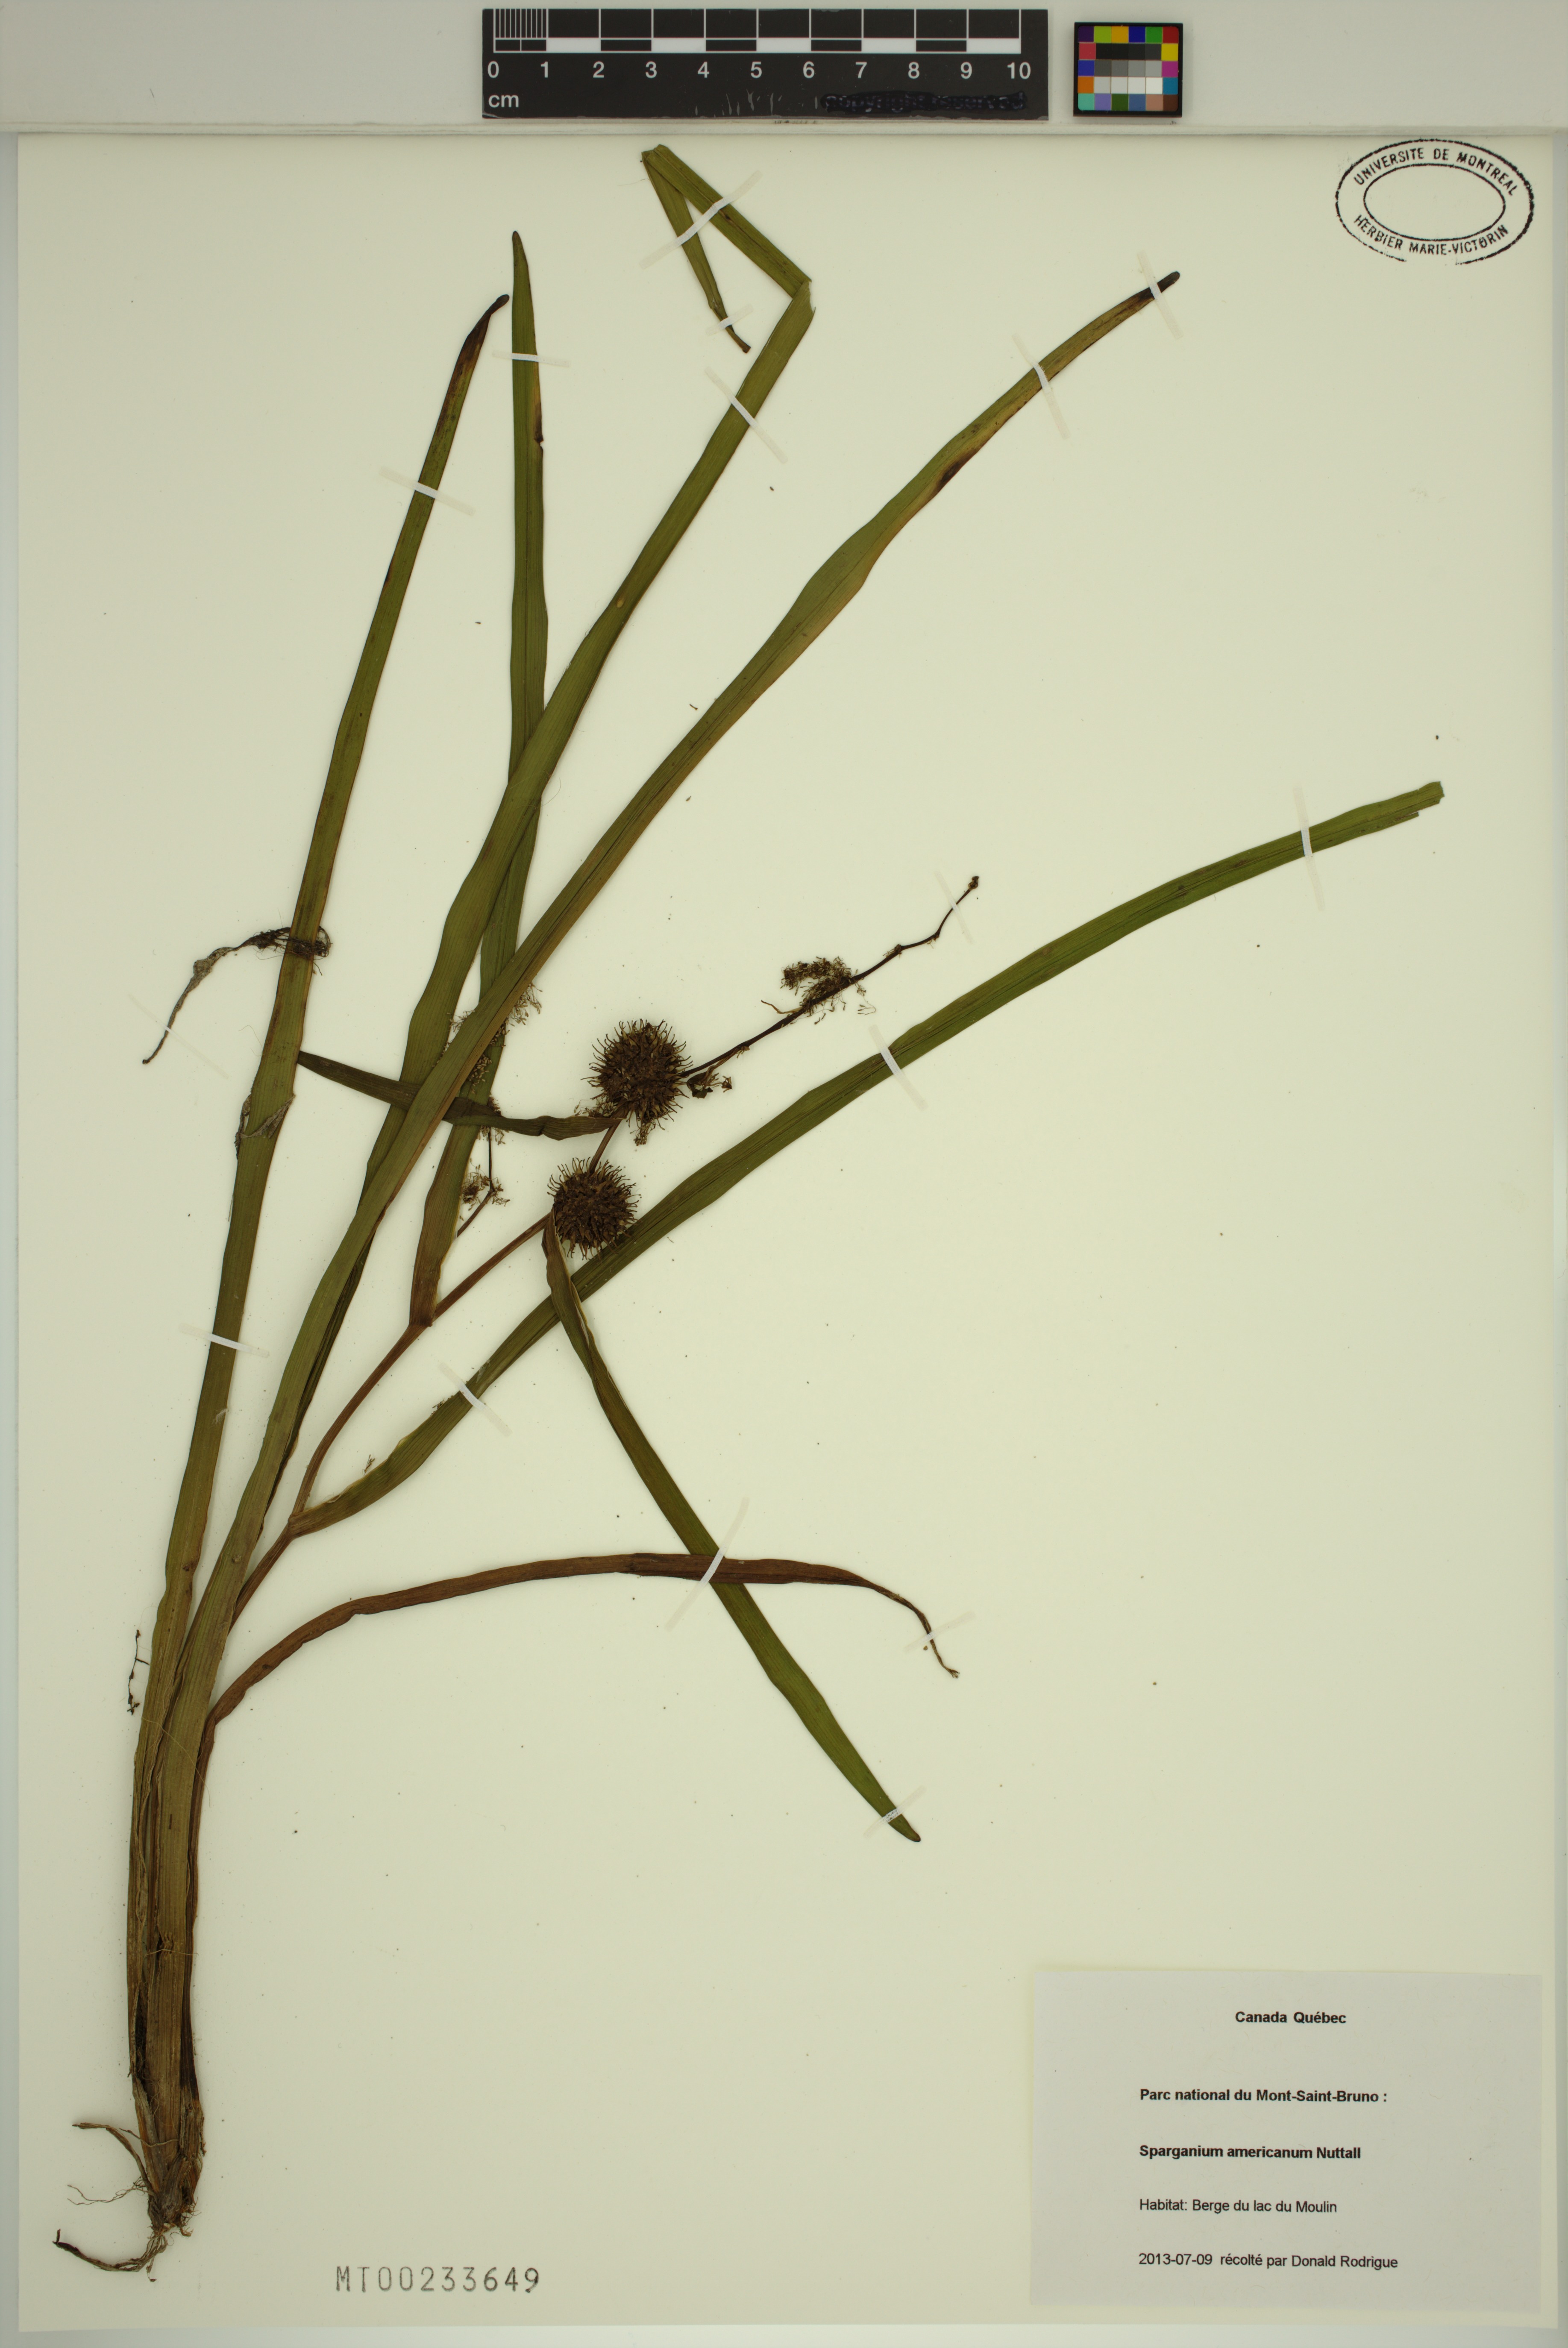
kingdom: Plantae
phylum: Tracheophyta
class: Liliopsida
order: Poales
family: Typhaceae
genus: Sparganium
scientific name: Sparganium americanum
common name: American burreed
